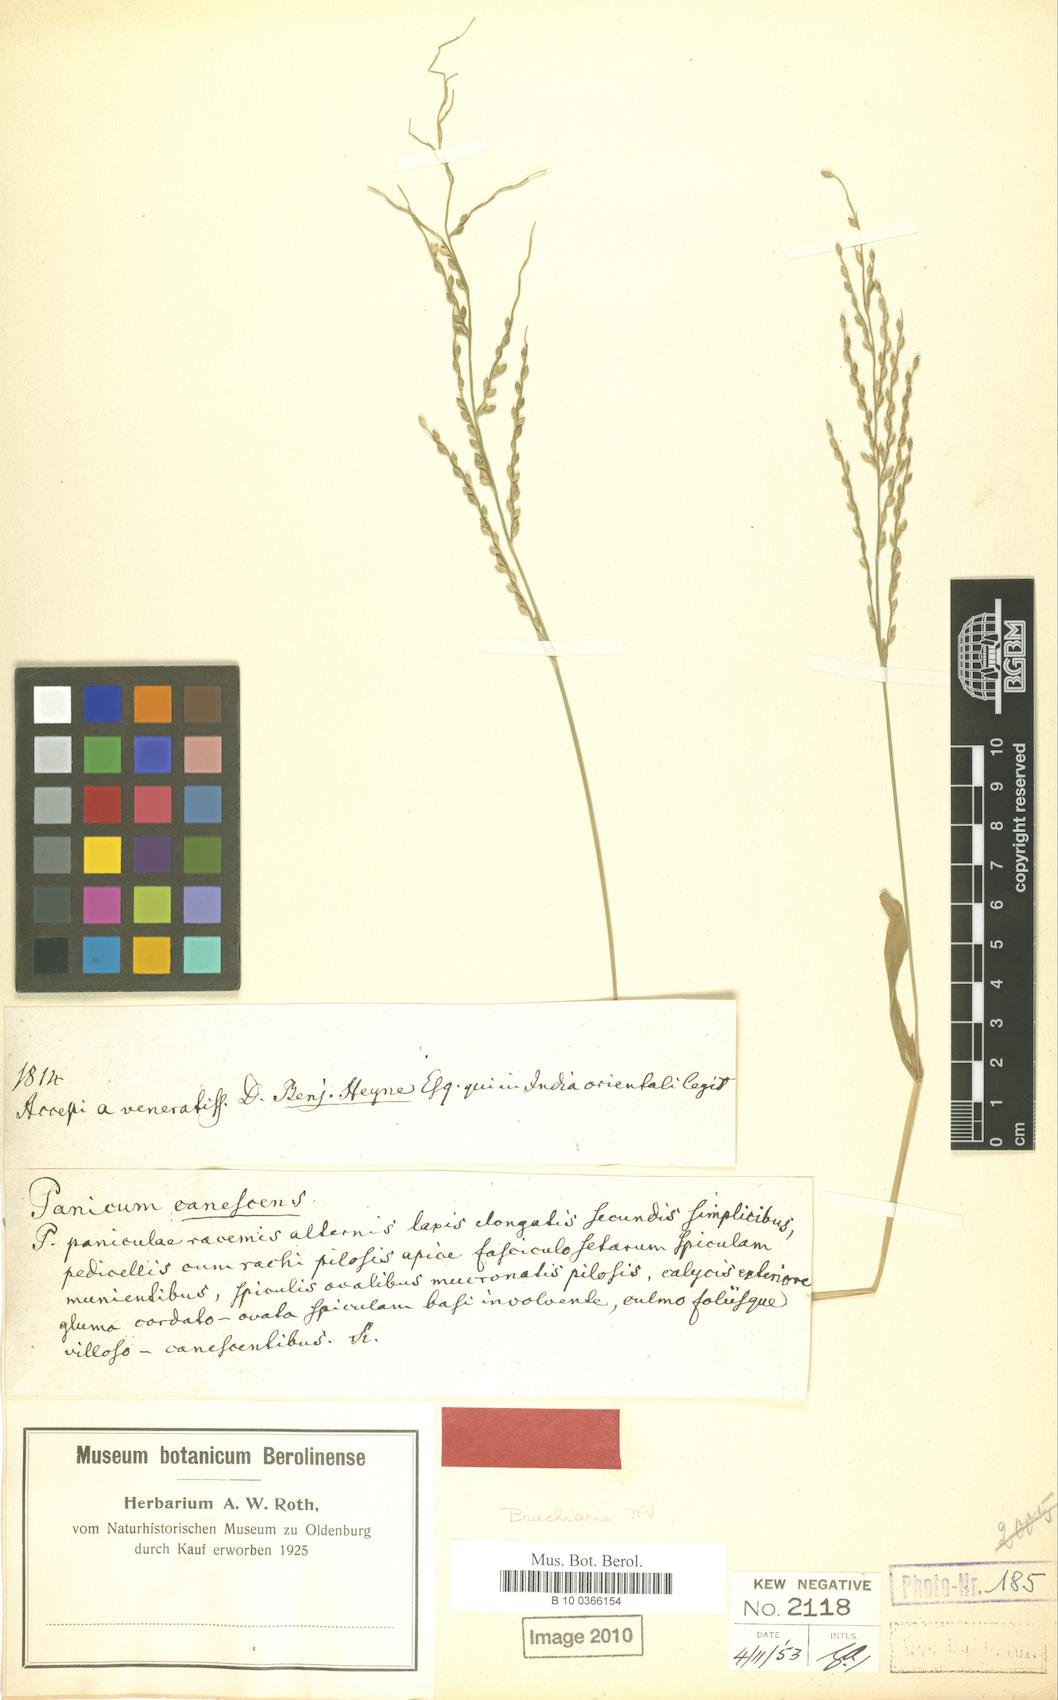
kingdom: Plantae
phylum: Tracheophyta
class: Liliopsida
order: Poales
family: Poaceae
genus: Urochloa
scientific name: Urochloa ramosa
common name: Browntop millet
